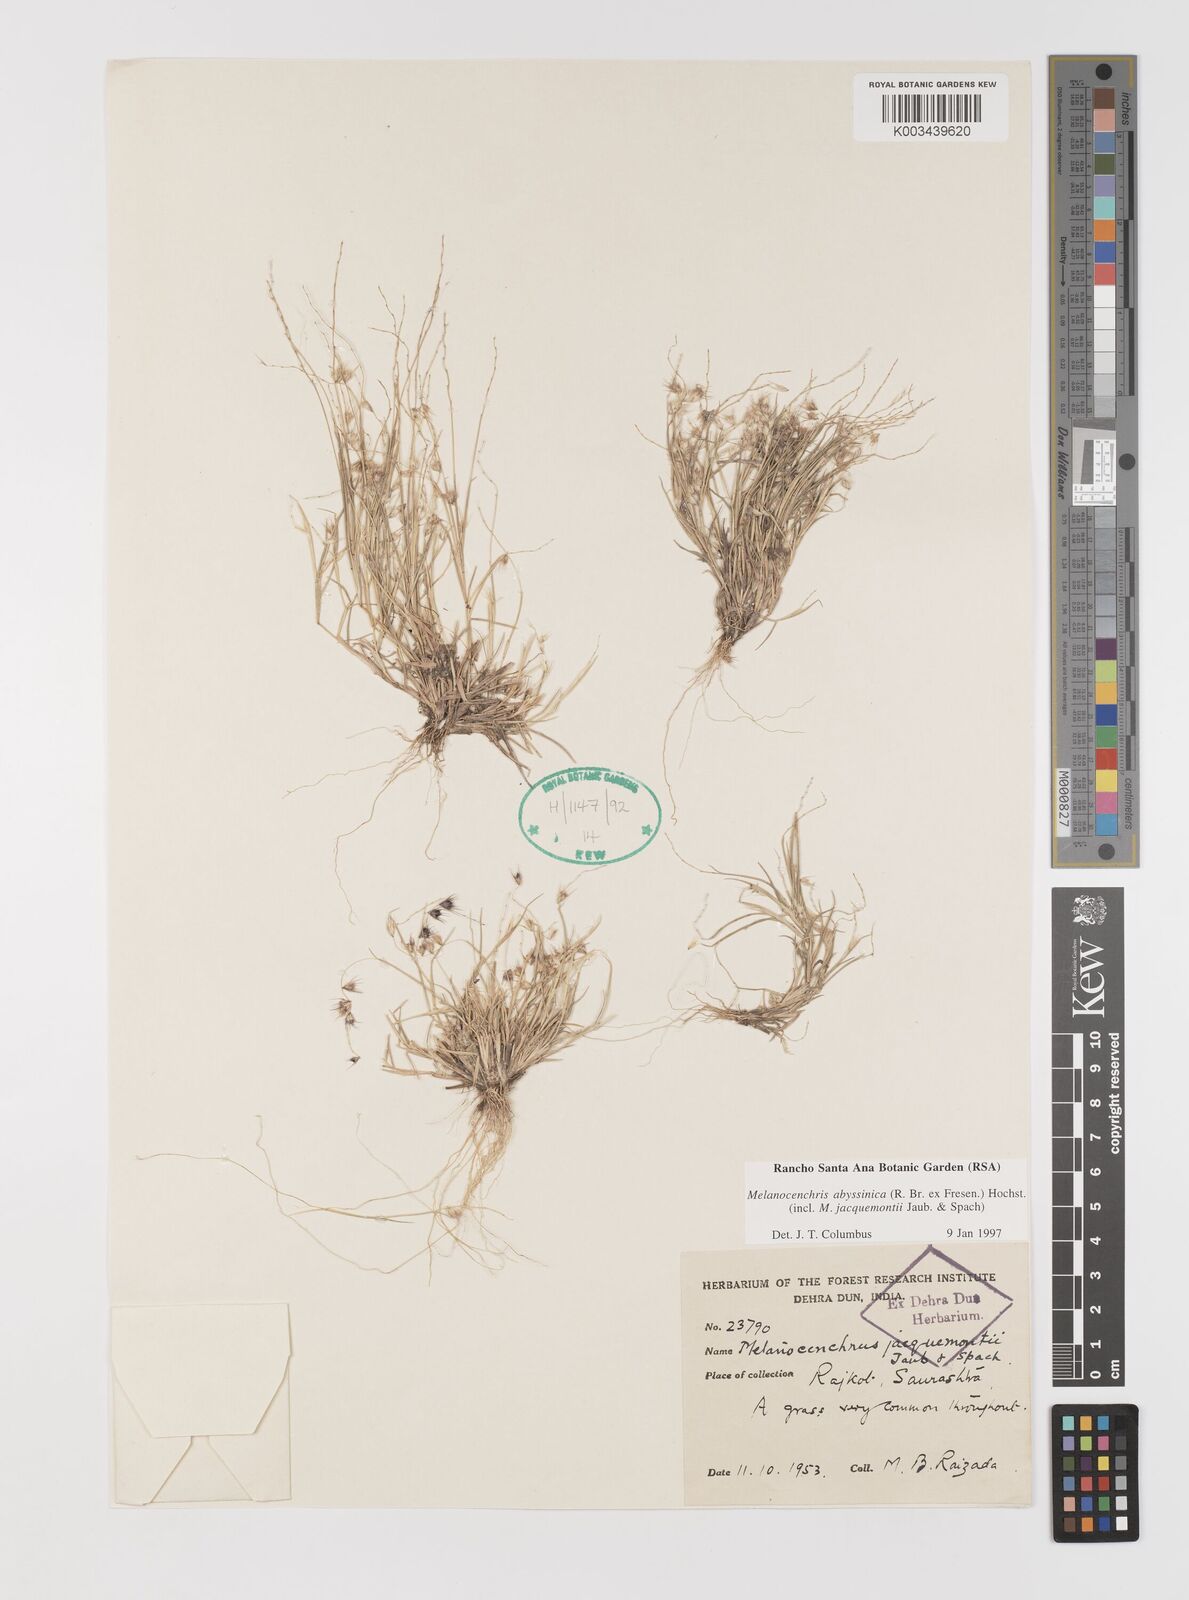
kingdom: Plantae
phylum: Tracheophyta
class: Liliopsida
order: Poales
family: Poaceae
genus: Melanocenchris
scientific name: Melanocenchris abyssinica
